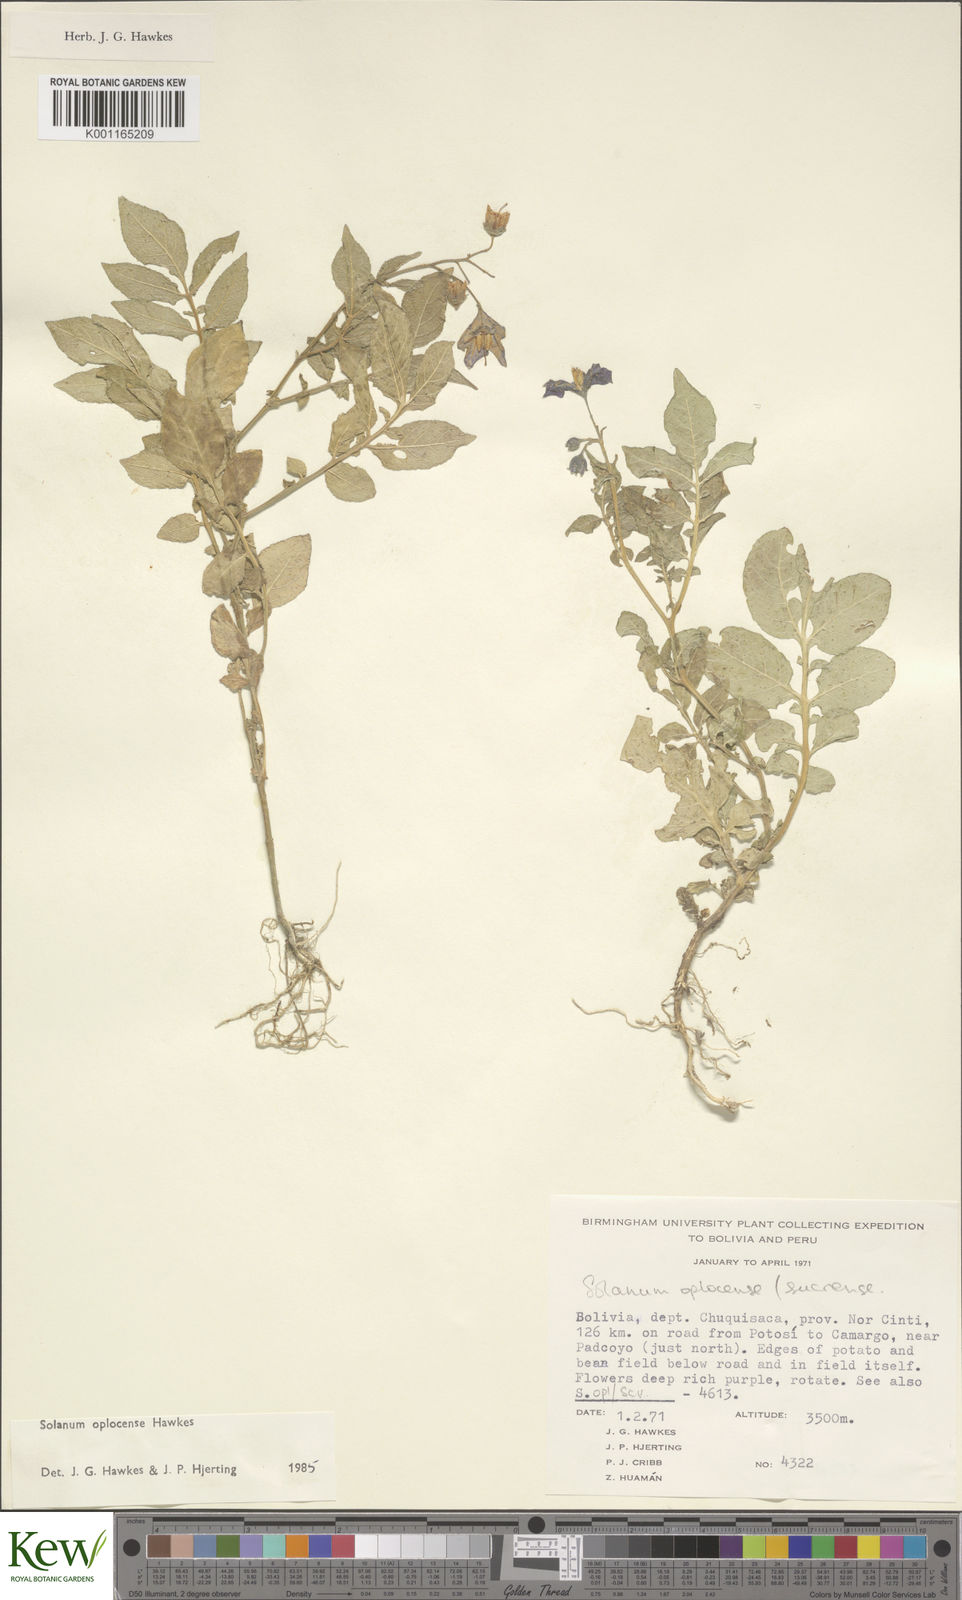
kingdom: Plantae
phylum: Tracheophyta
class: Magnoliopsida
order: Solanales
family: Solanaceae
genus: Solanum
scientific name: Solanum brevicaule
